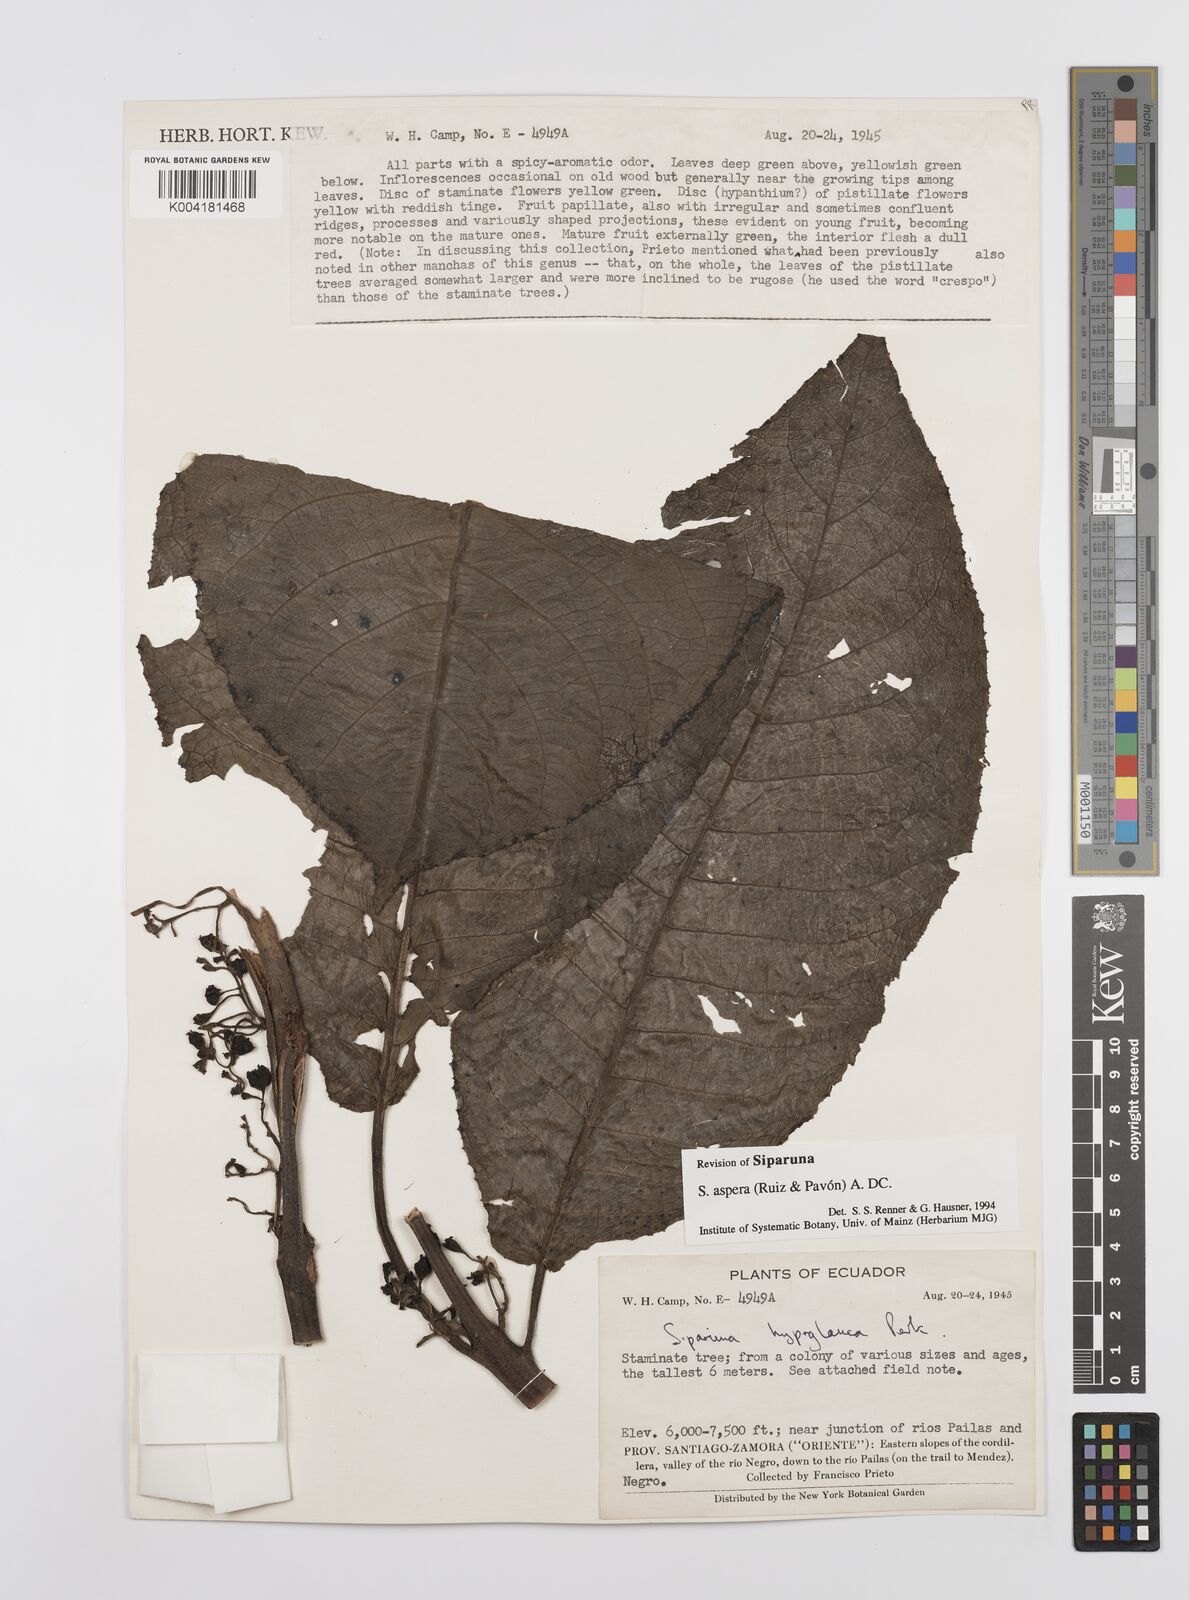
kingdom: Plantae
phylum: Tracheophyta
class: Magnoliopsida
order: Laurales
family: Siparunaceae
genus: Siparuna
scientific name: Siparuna aspera
